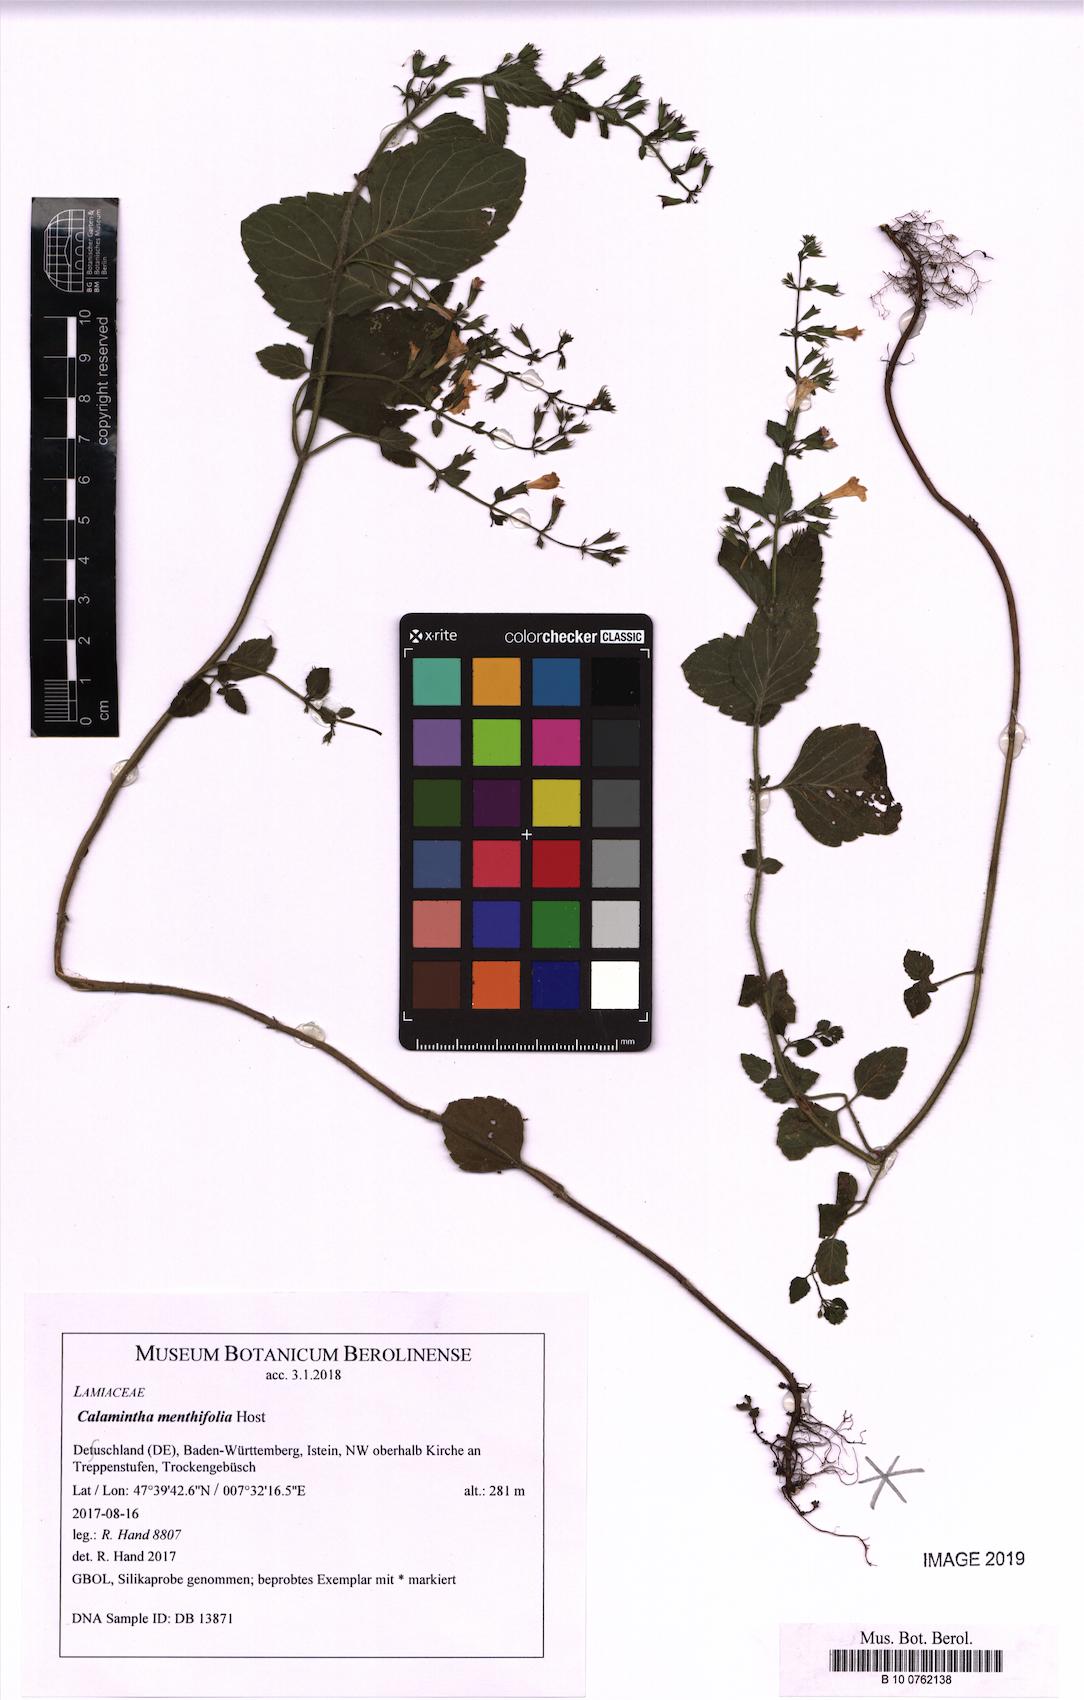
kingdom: Plantae
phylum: Tracheophyta
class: Magnoliopsida
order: Lamiales
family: Lamiaceae
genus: Clinopodium
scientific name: Clinopodium menthifolium
